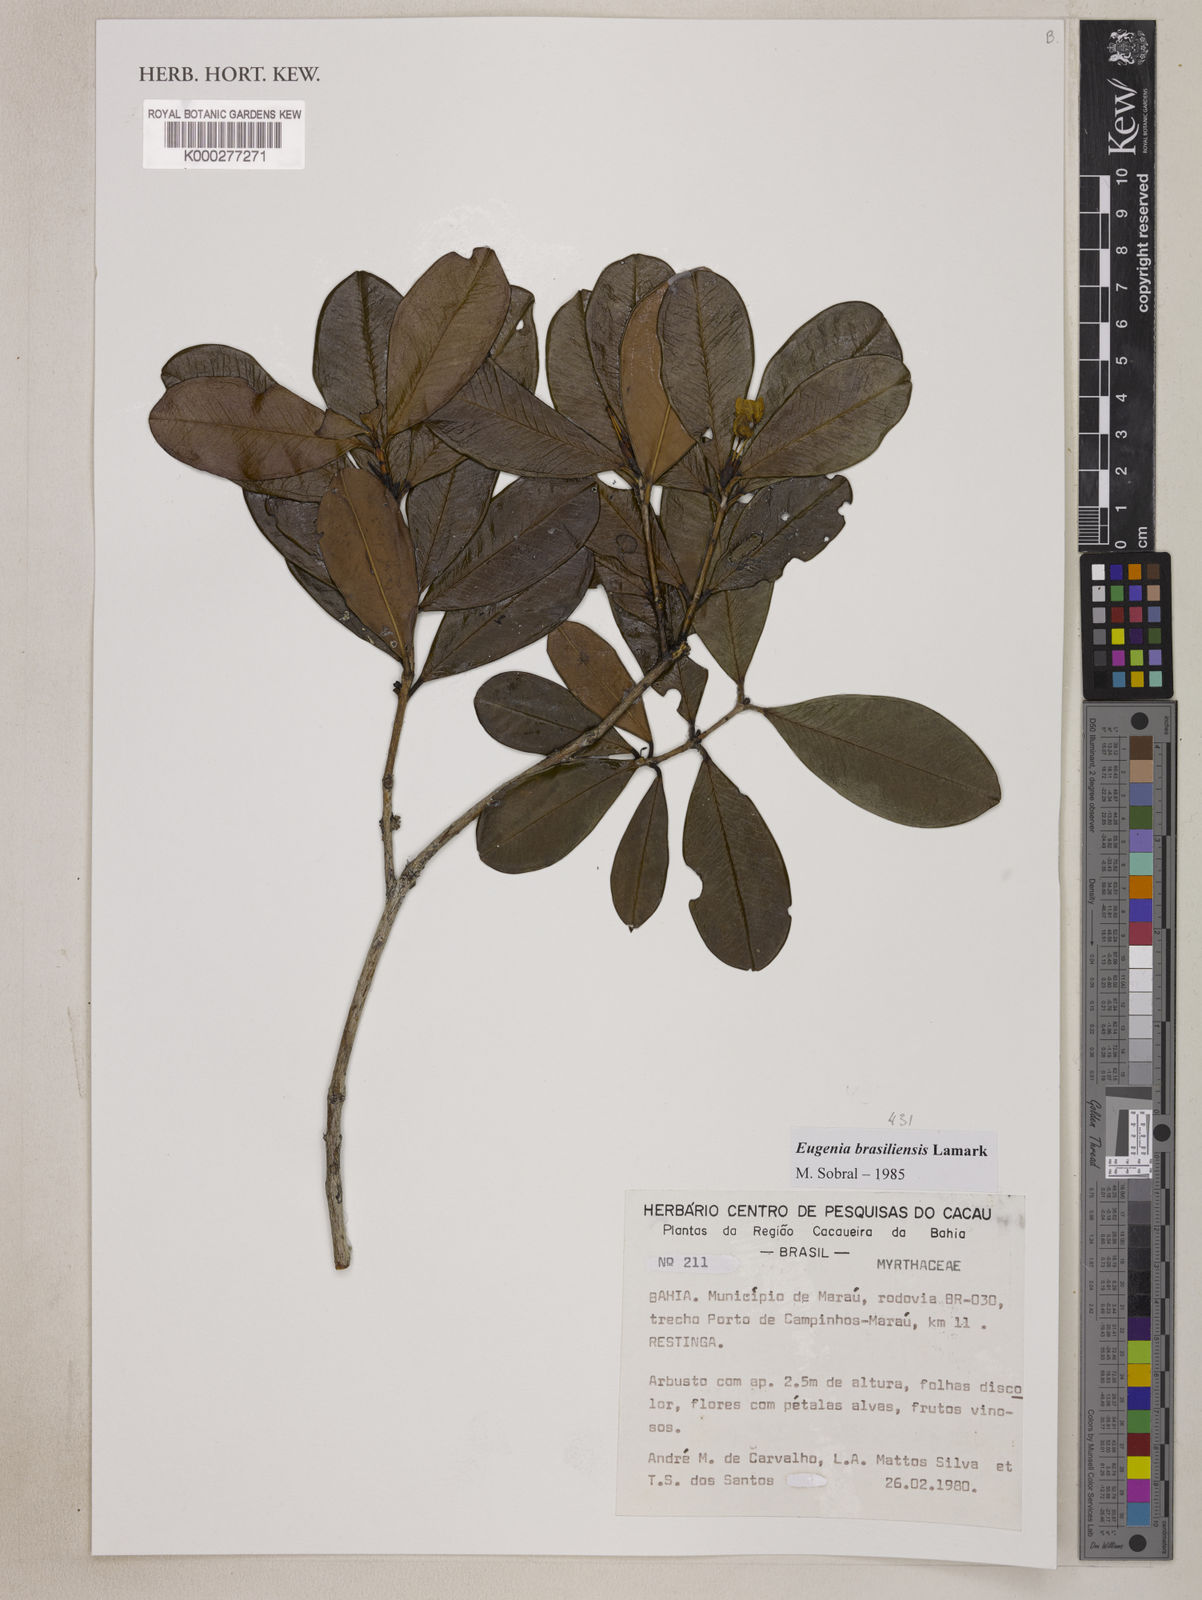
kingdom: Plantae
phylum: Tracheophyta
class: Magnoliopsida
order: Myrtales
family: Myrtaceae
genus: Eugenia
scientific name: Eugenia brasiliensis
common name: Grumichama
